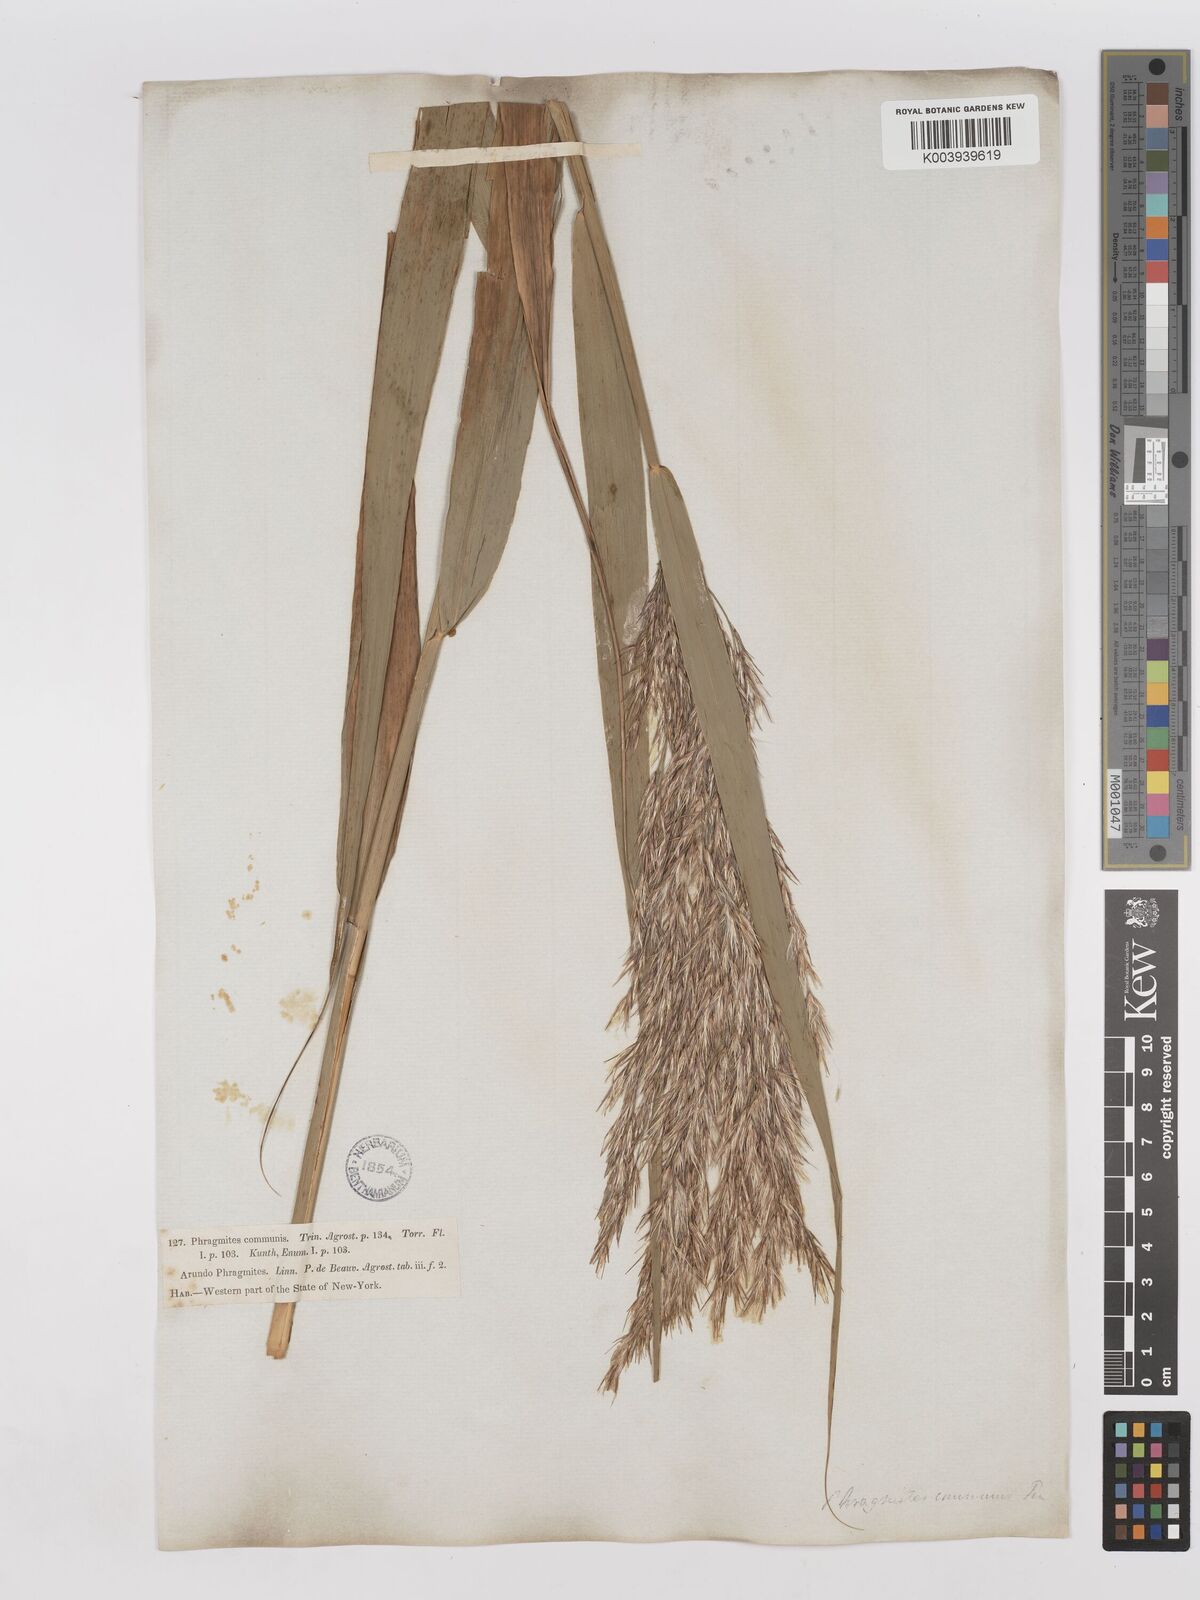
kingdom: Plantae
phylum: Tracheophyta
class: Liliopsida
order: Poales
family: Poaceae
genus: Phragmites
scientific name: Phragmites australis
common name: Common reed
